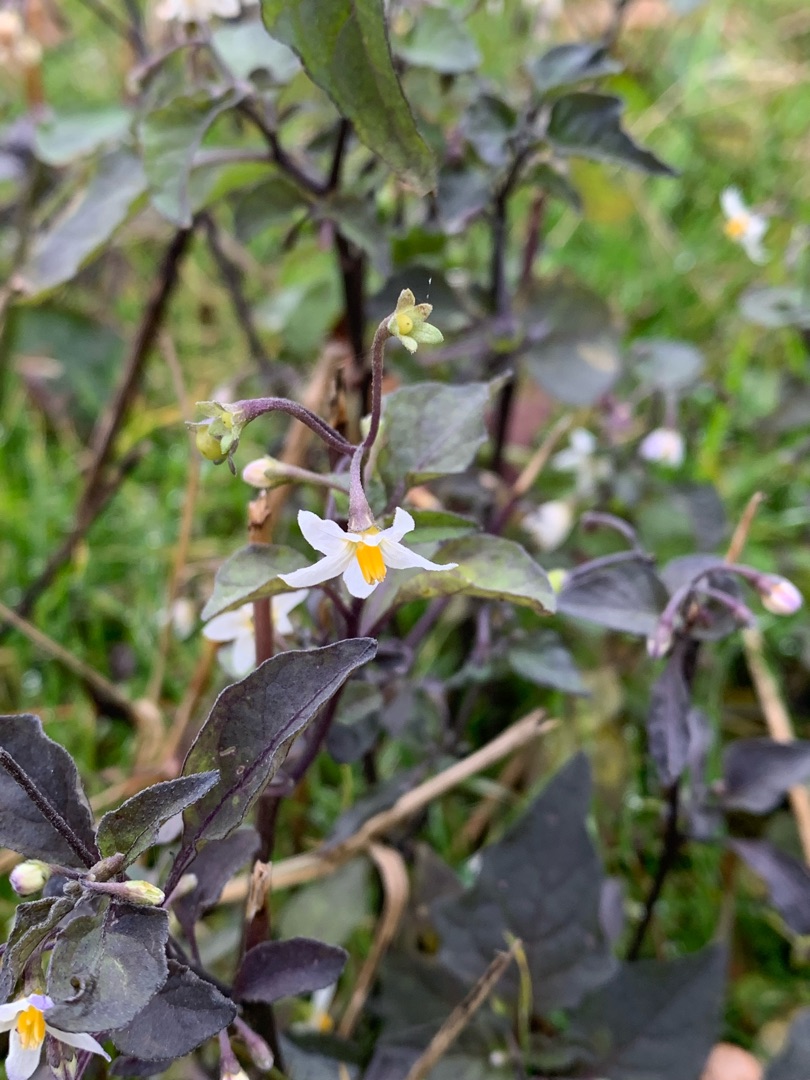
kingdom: Plantae
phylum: Tracheophyta
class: Magnoliopsida
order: Solanales
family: Solanaceae
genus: Solanum
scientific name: Solanum nigrum
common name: Sort natskygge
